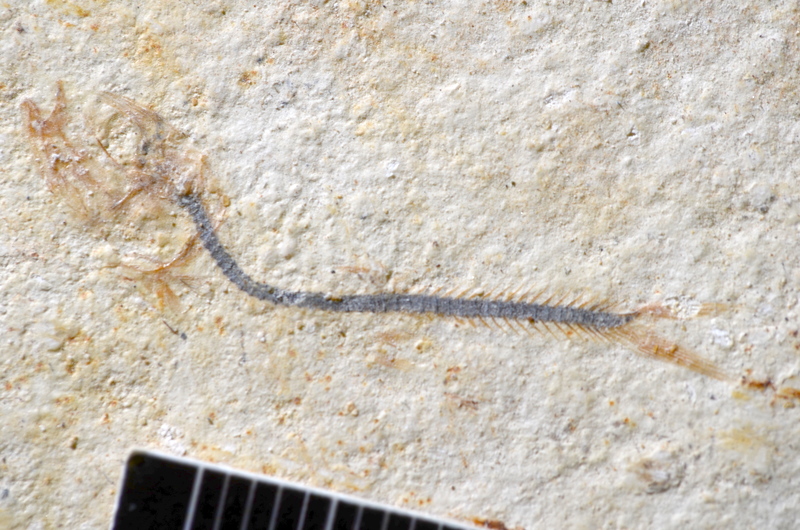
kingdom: Animalia
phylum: Chordata
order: Salmoniformes
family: Orthogonikleithridae
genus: Orthogonikleithrus
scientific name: Orthogonikleithrus hoelli
